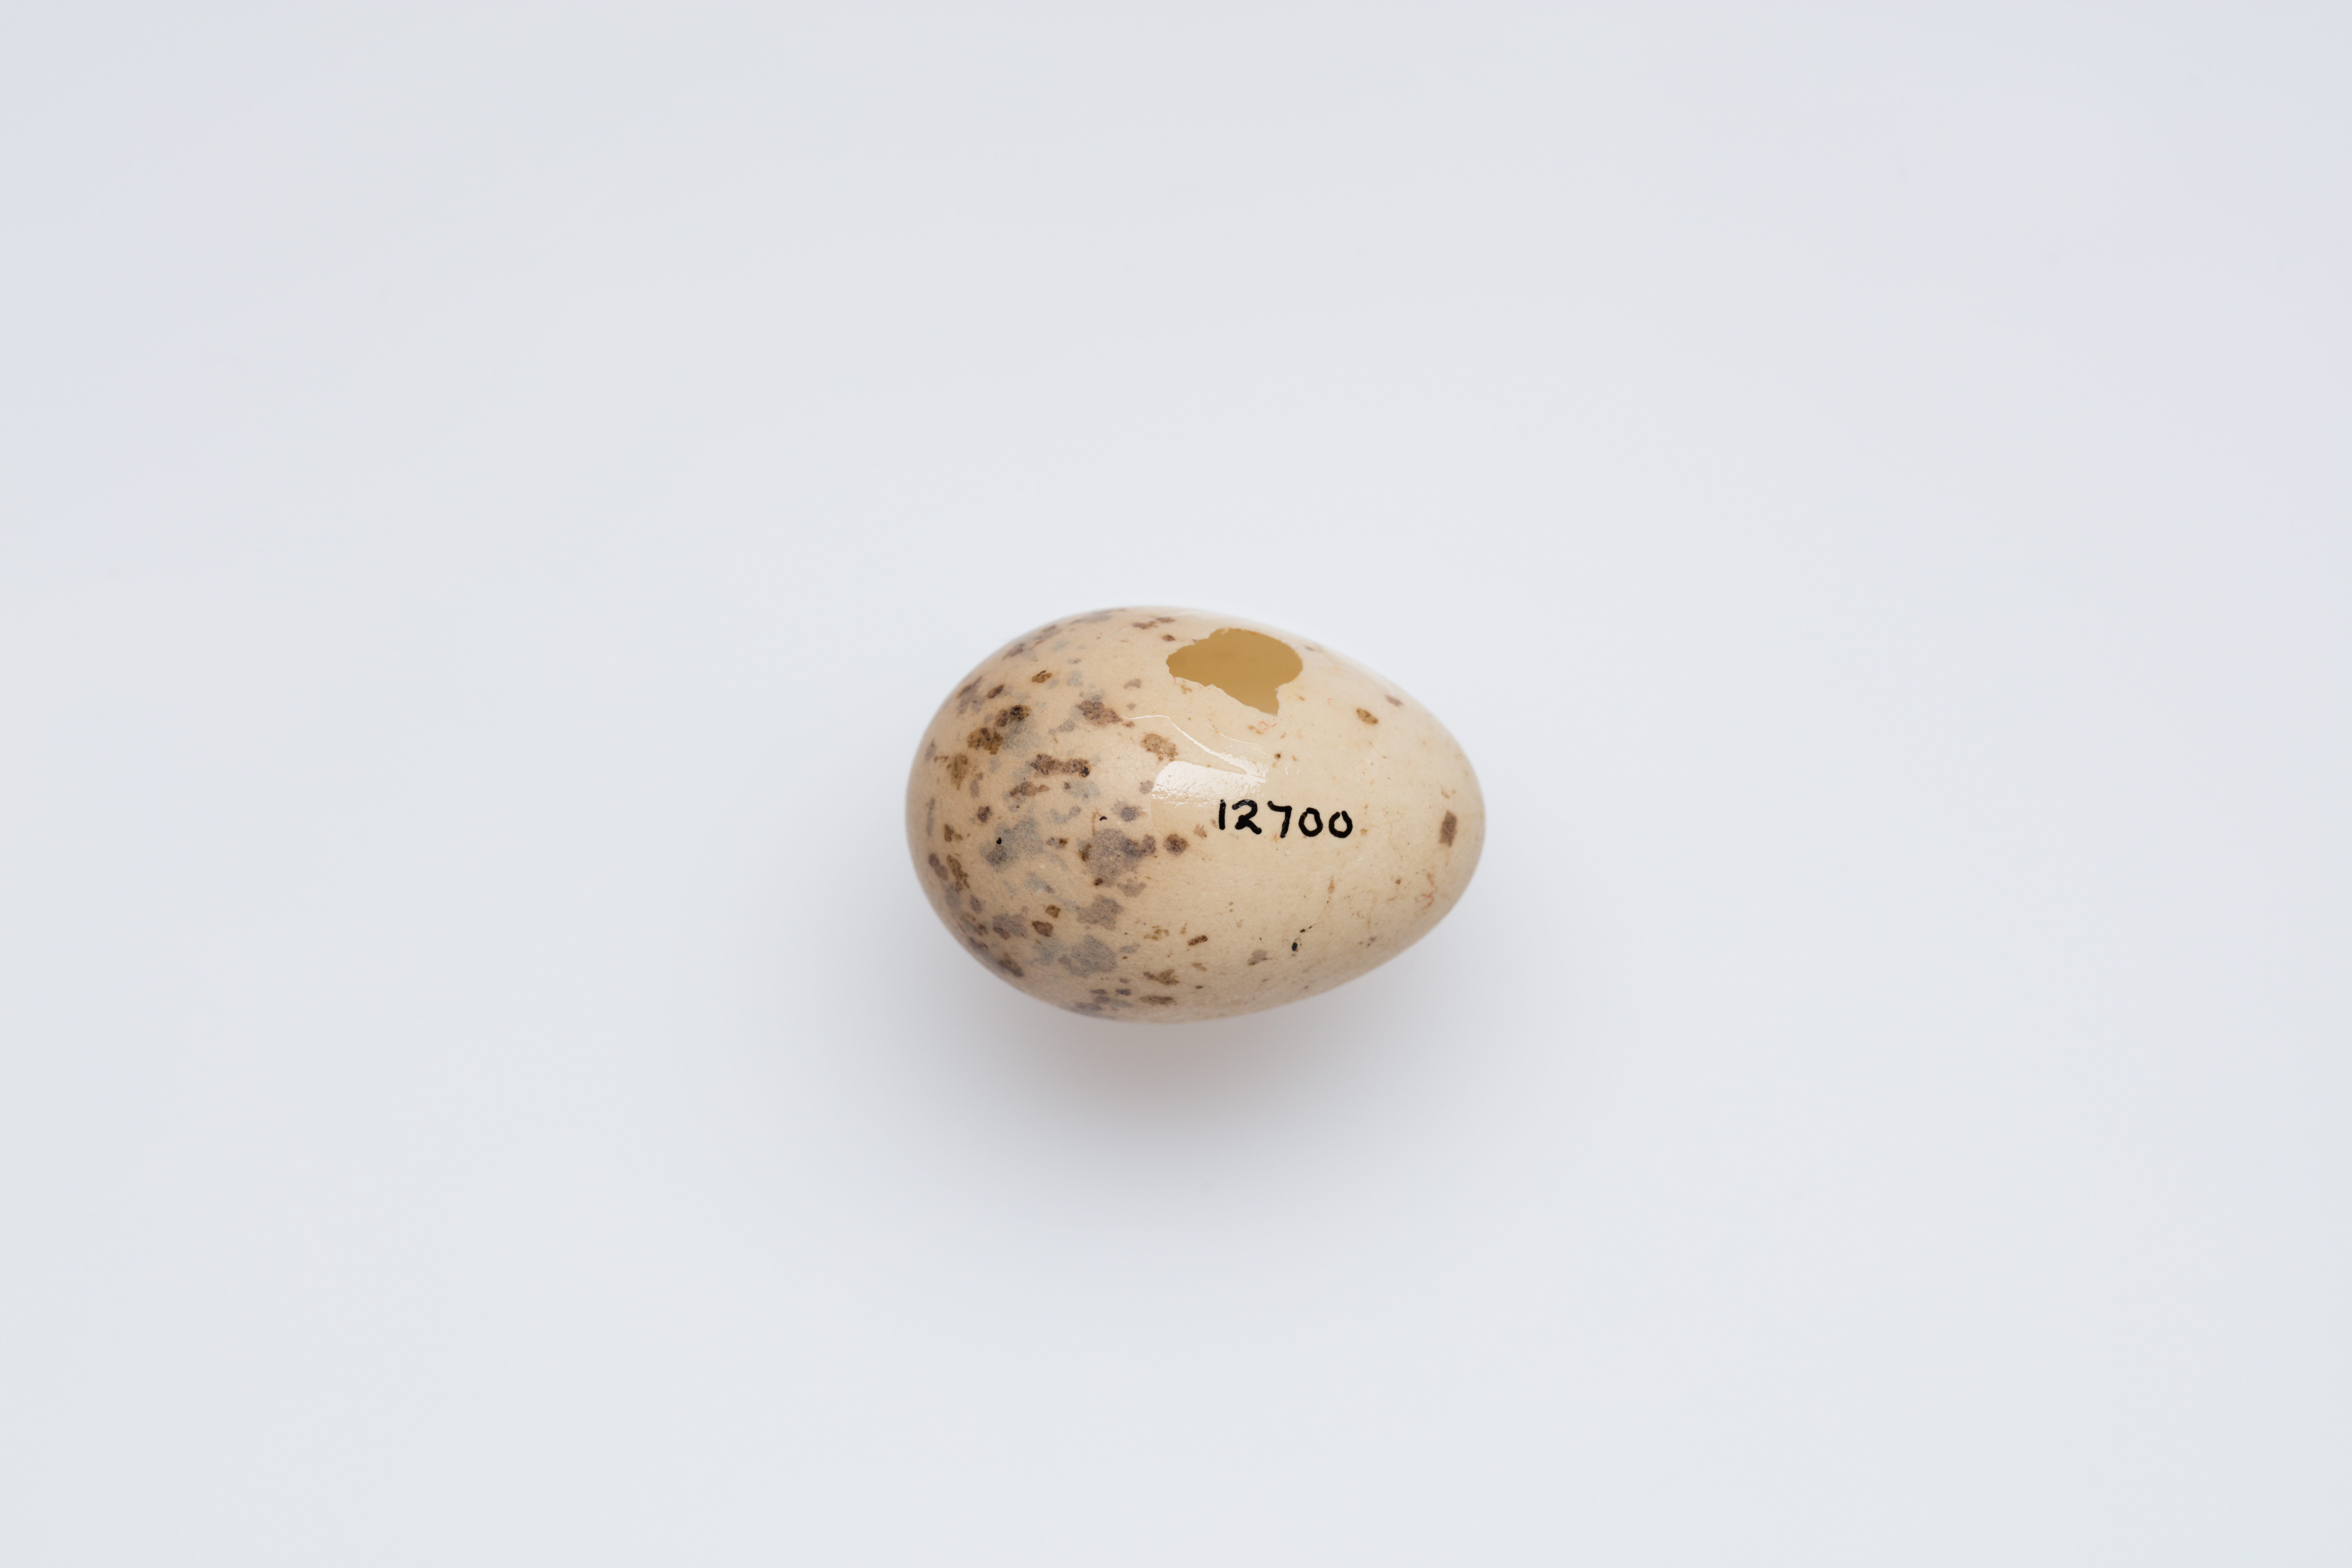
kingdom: Animalia
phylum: Chordata
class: Aves
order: Passeriformes
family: Pachycephalidae
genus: Pachycephala
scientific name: Pachycephala pectoralis
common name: Australian golden whistler
